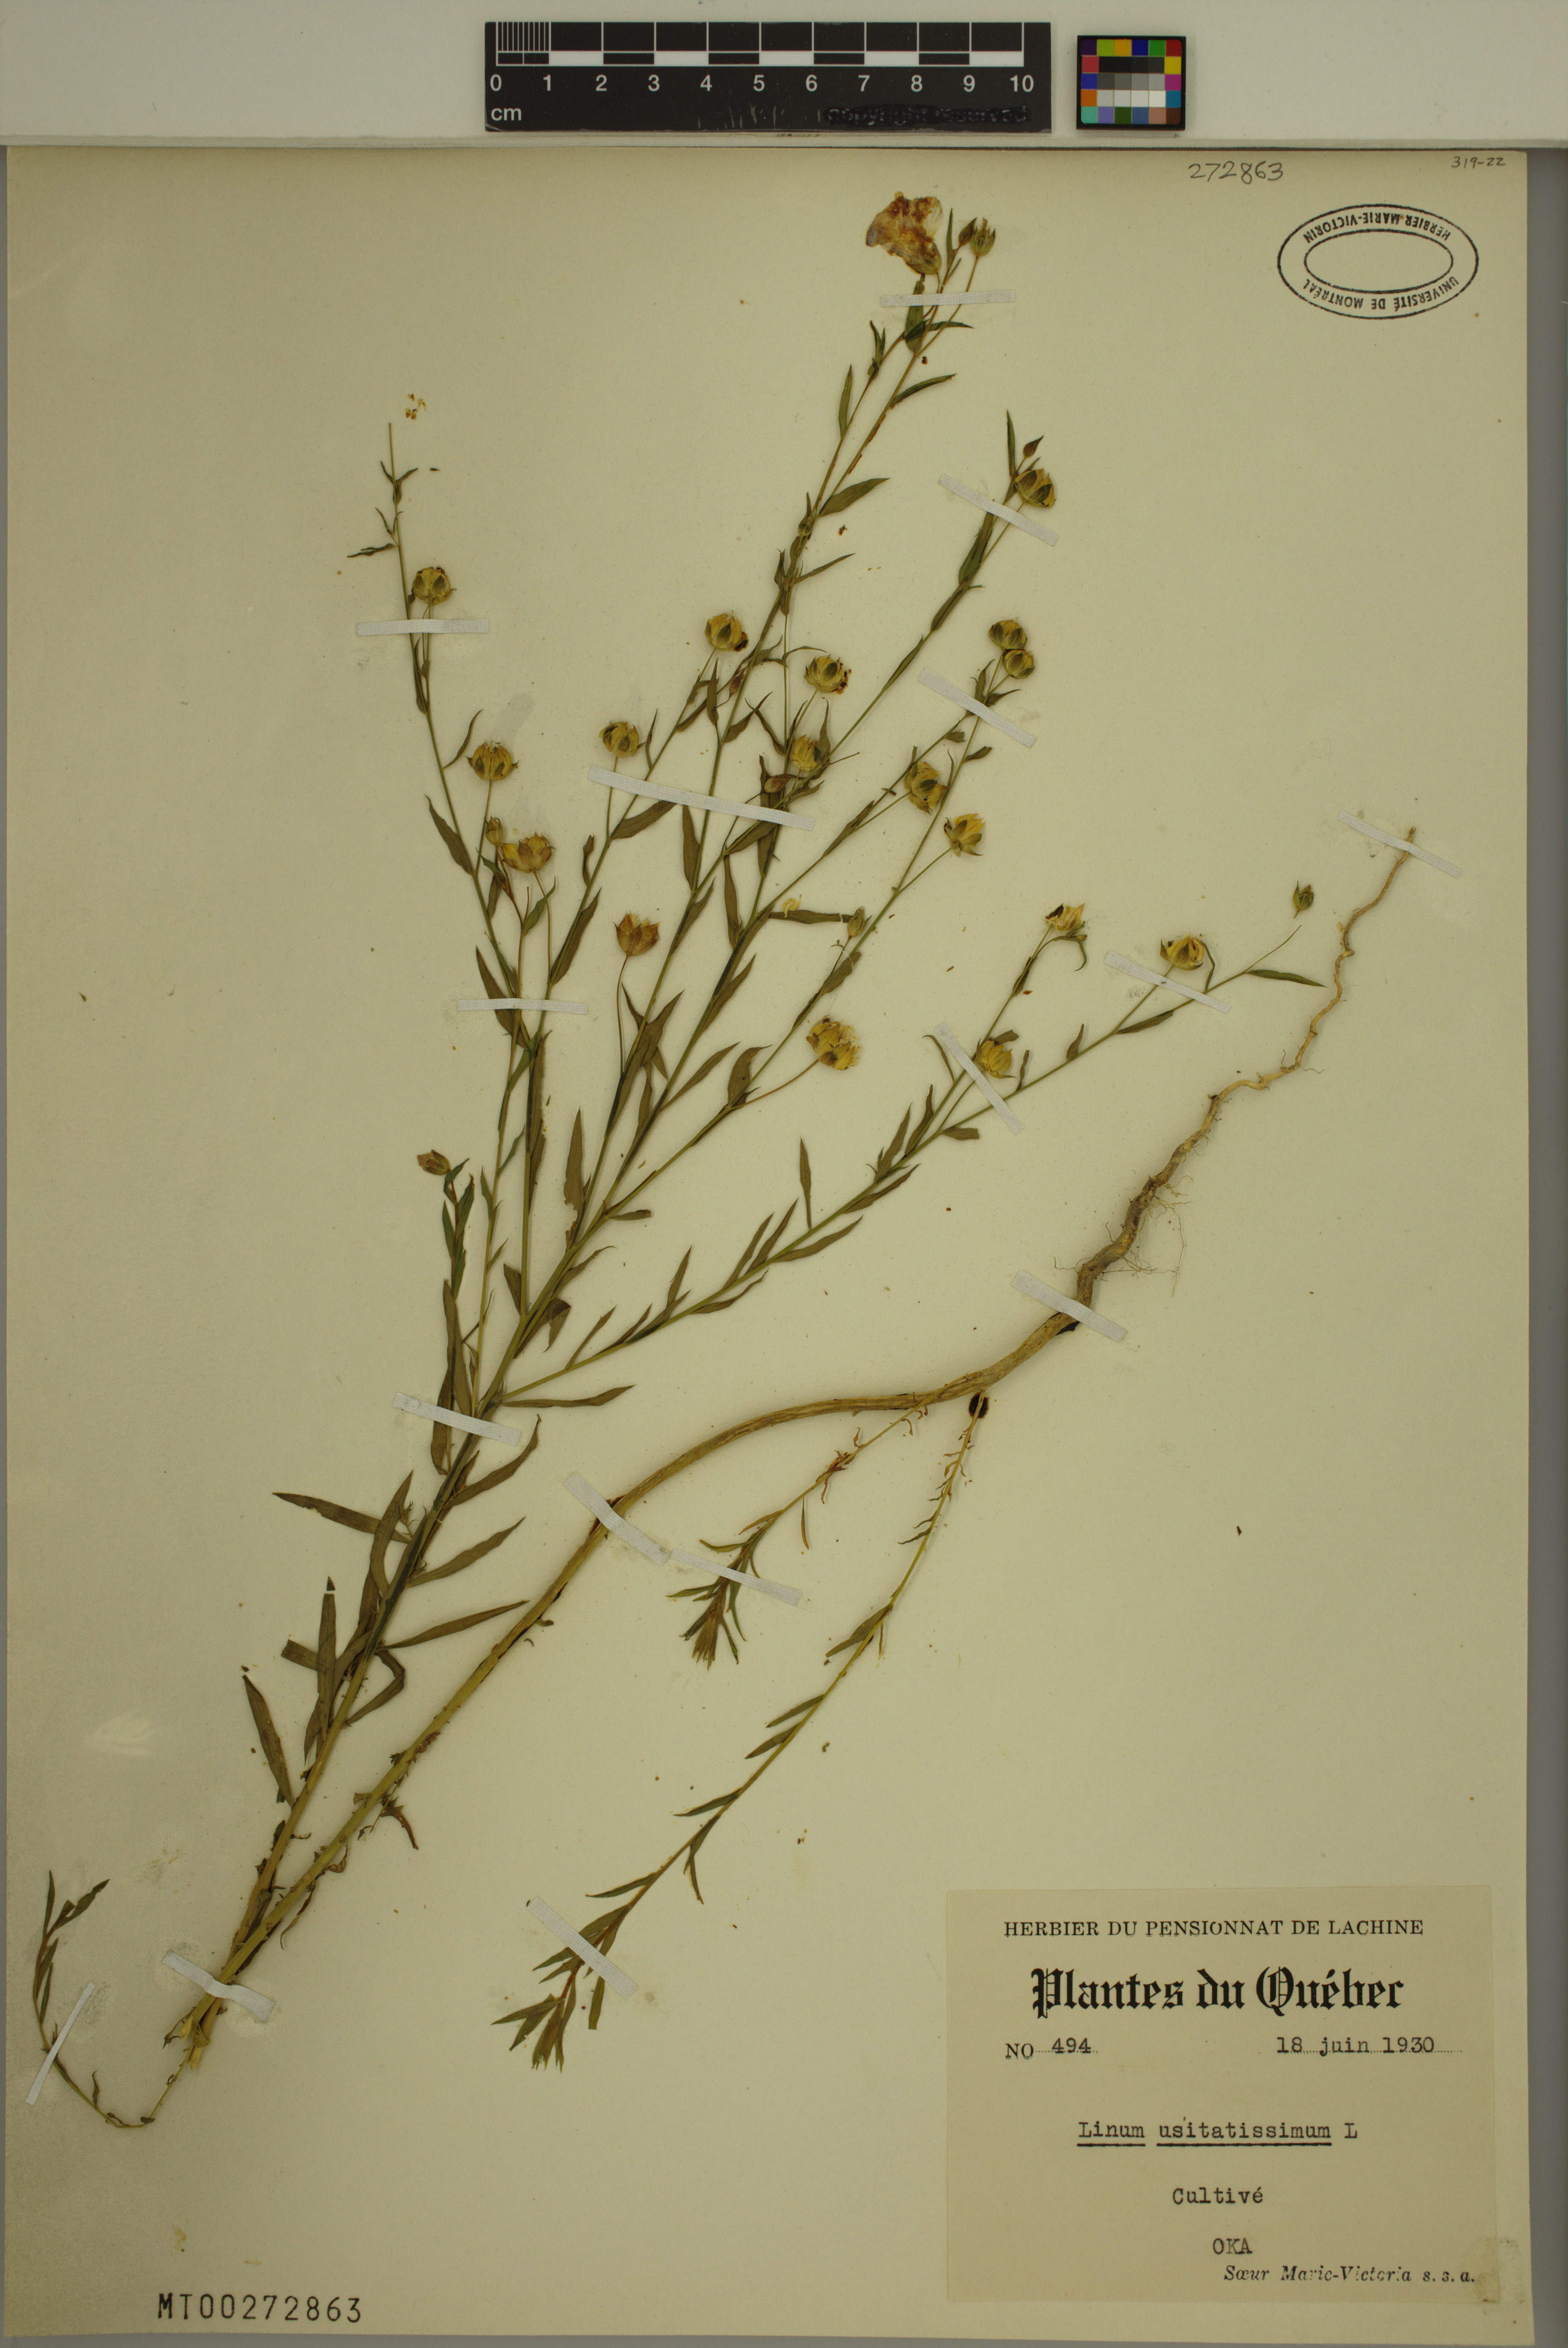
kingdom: Plantae
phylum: Tracheophyta
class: Magnoliopsida
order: Malpighiales
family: Linaceae
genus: Linum
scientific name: Linum usitatissimum
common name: Flax
